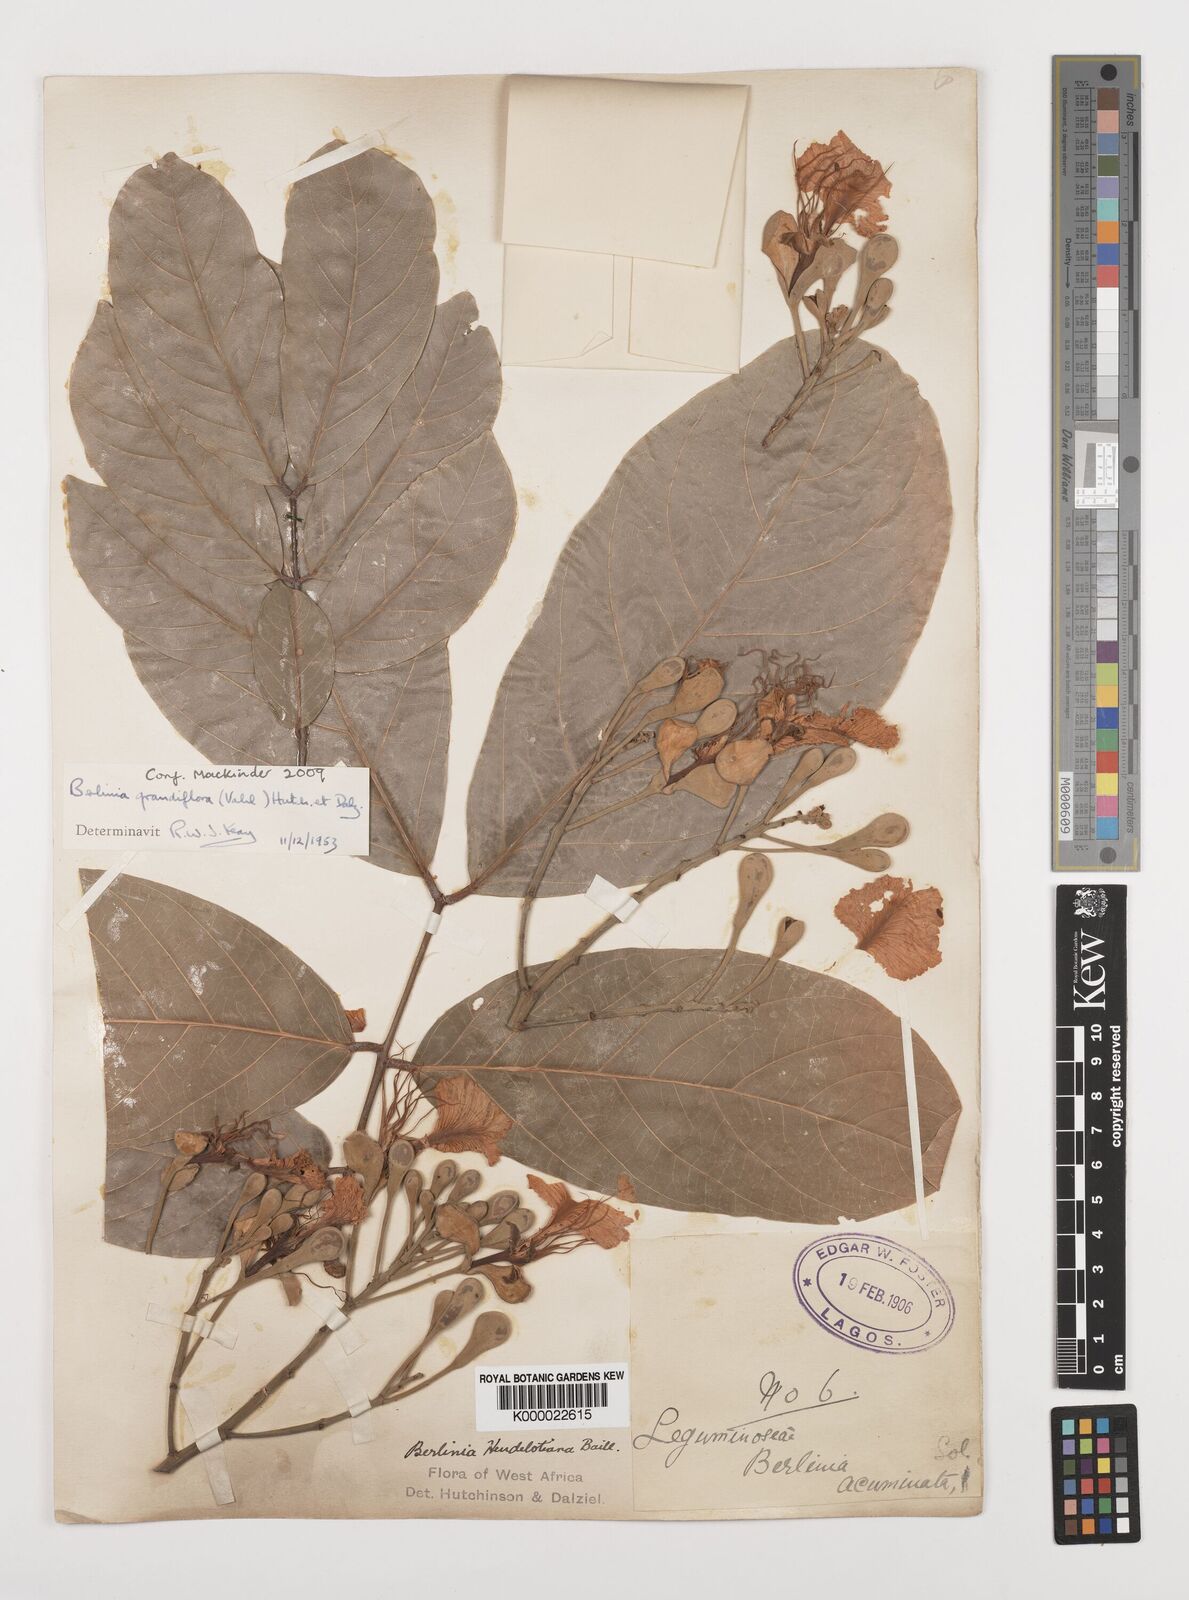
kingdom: Plantae
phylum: Tracheophyta
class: Magnoliopsida
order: Fabales
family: Fabaceae
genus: Berlinia
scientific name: Berlinia grandiflora
